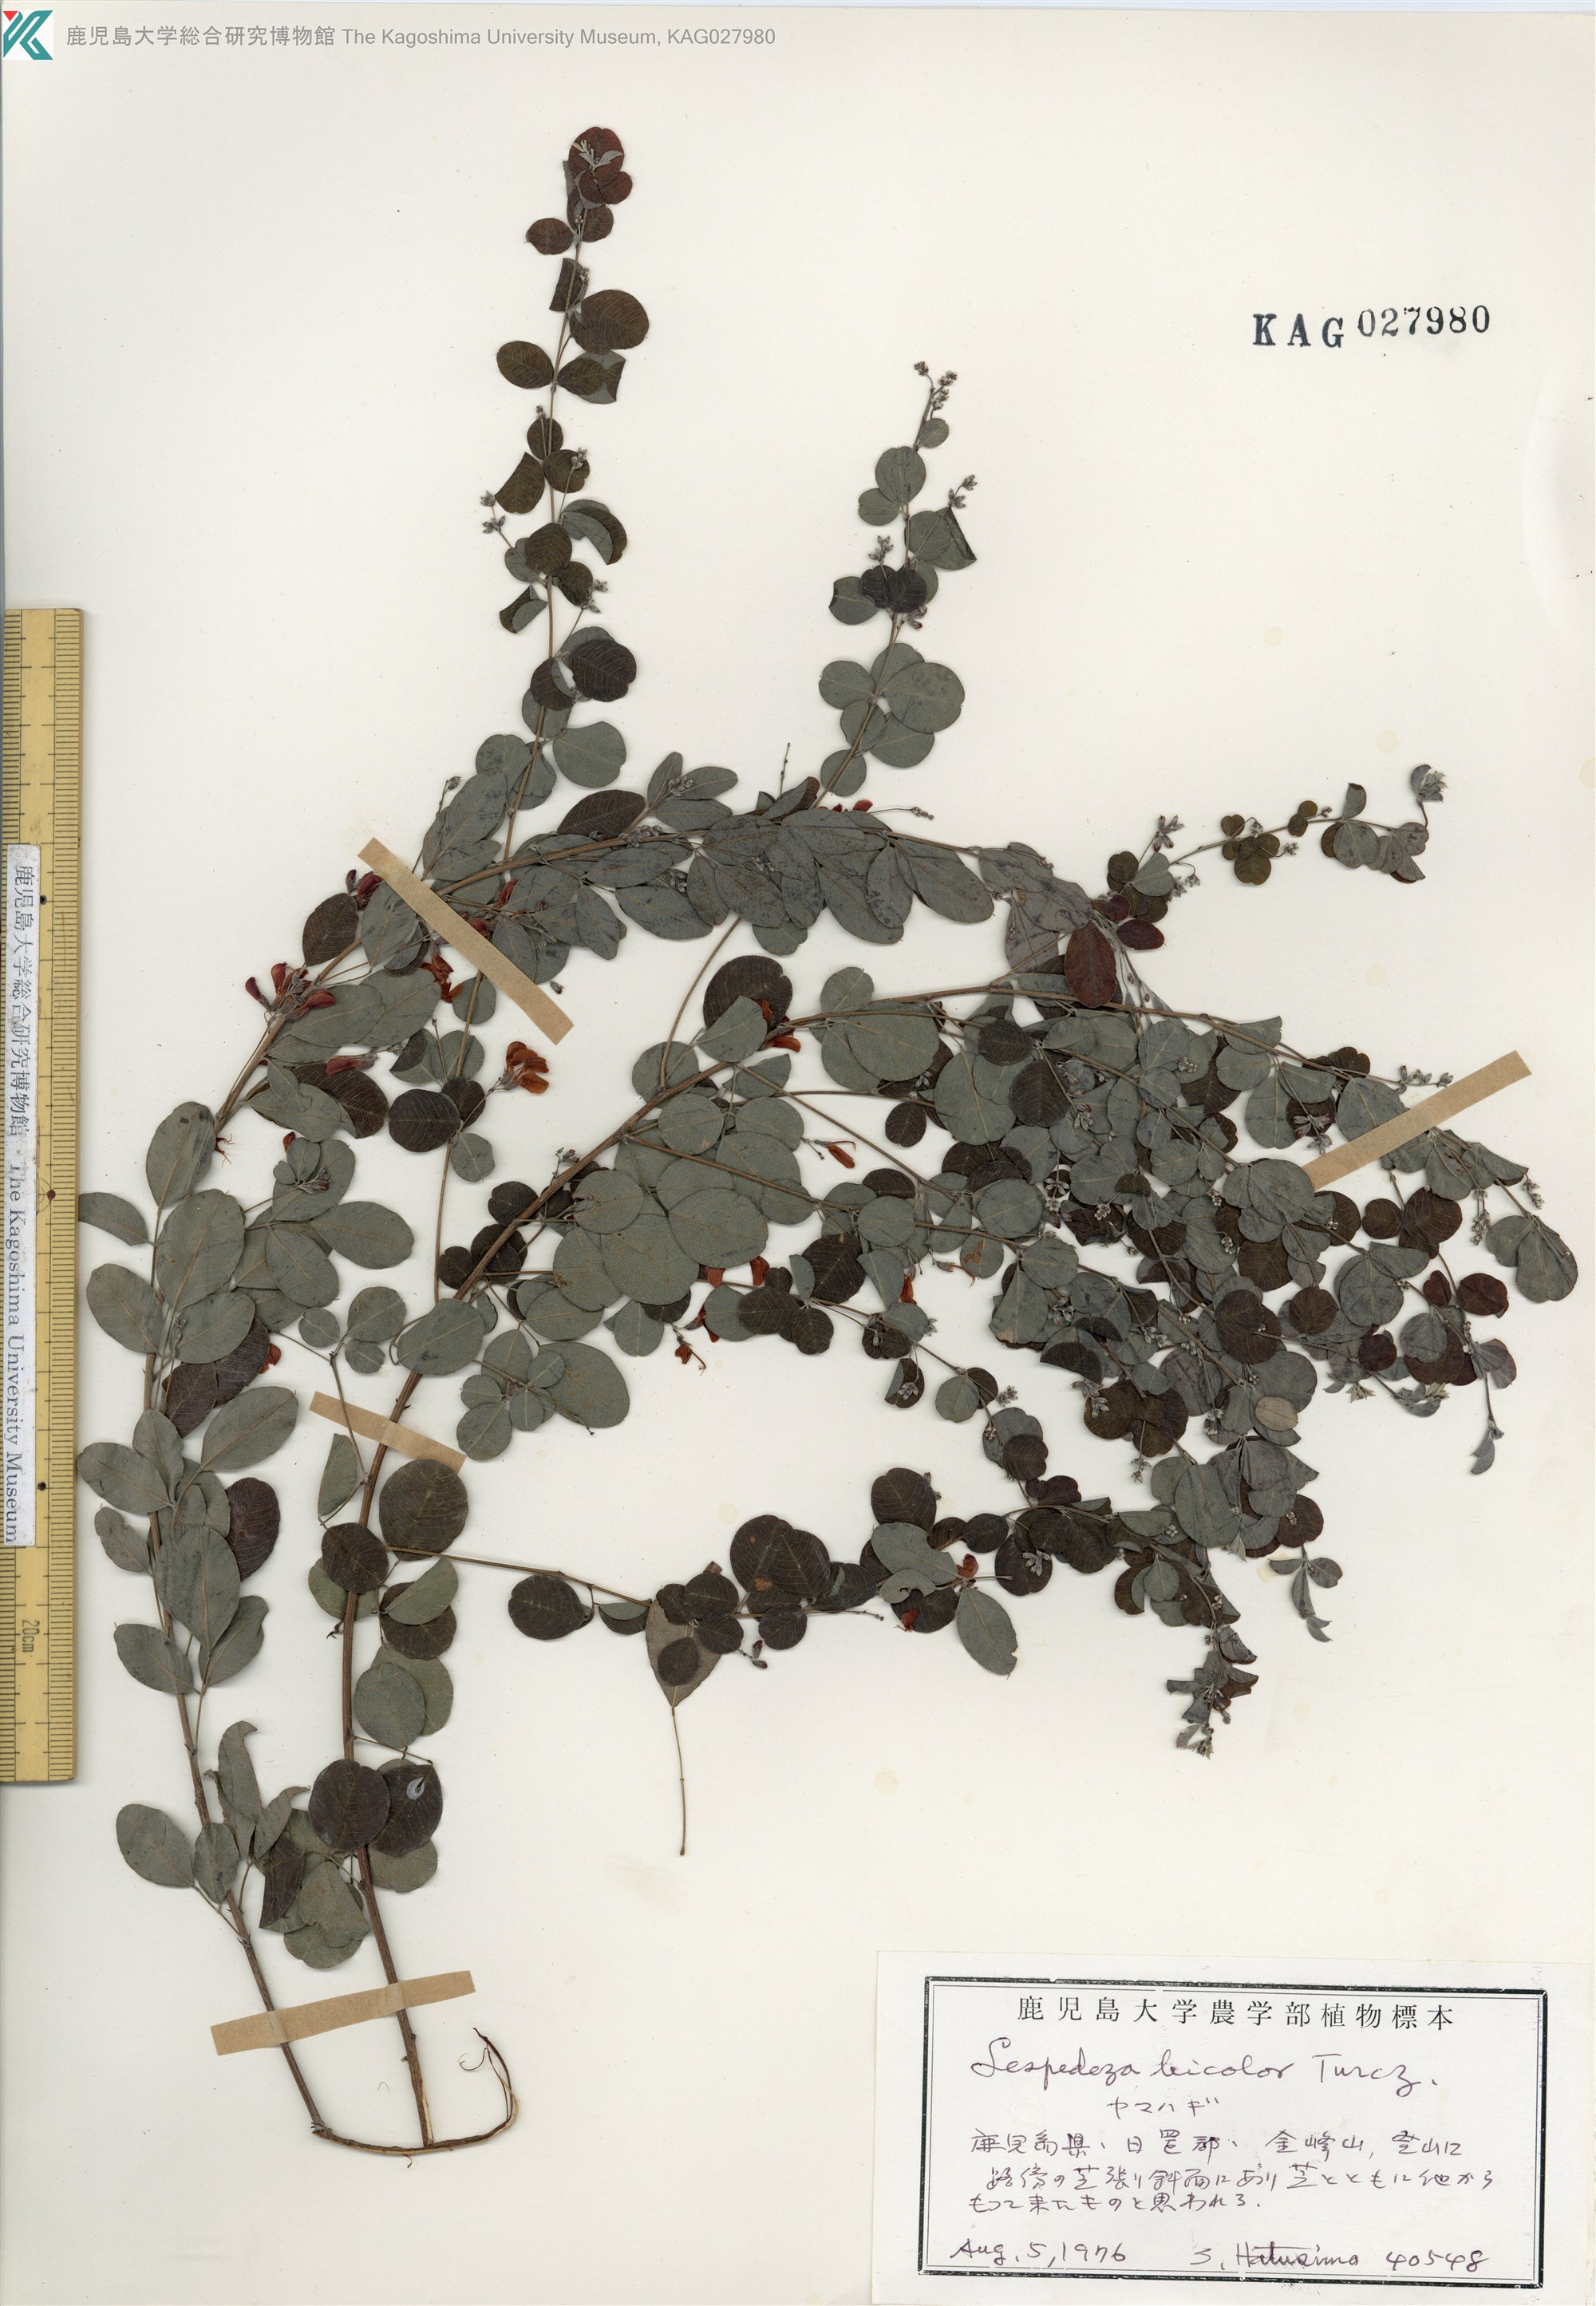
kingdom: Plantae
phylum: Tracheophyta
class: Magnoliopsida
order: Fabales
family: Fabaceae
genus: Lespedeza
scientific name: Lespedeza bicolor
